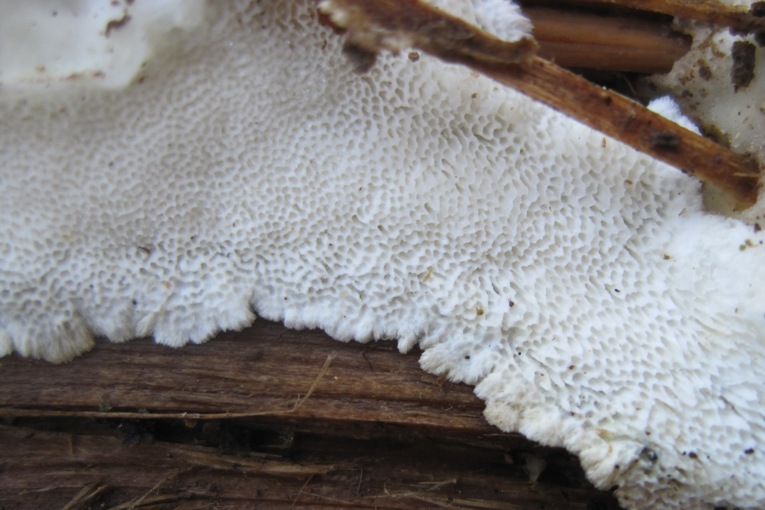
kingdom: Fungi
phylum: Basidiomycota
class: Agaricomycetes
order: Polyporales
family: Gelatoporiaceae
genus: Cinereomyces
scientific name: Cinereomyces lindbladii
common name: almindelig gråporesvamp
